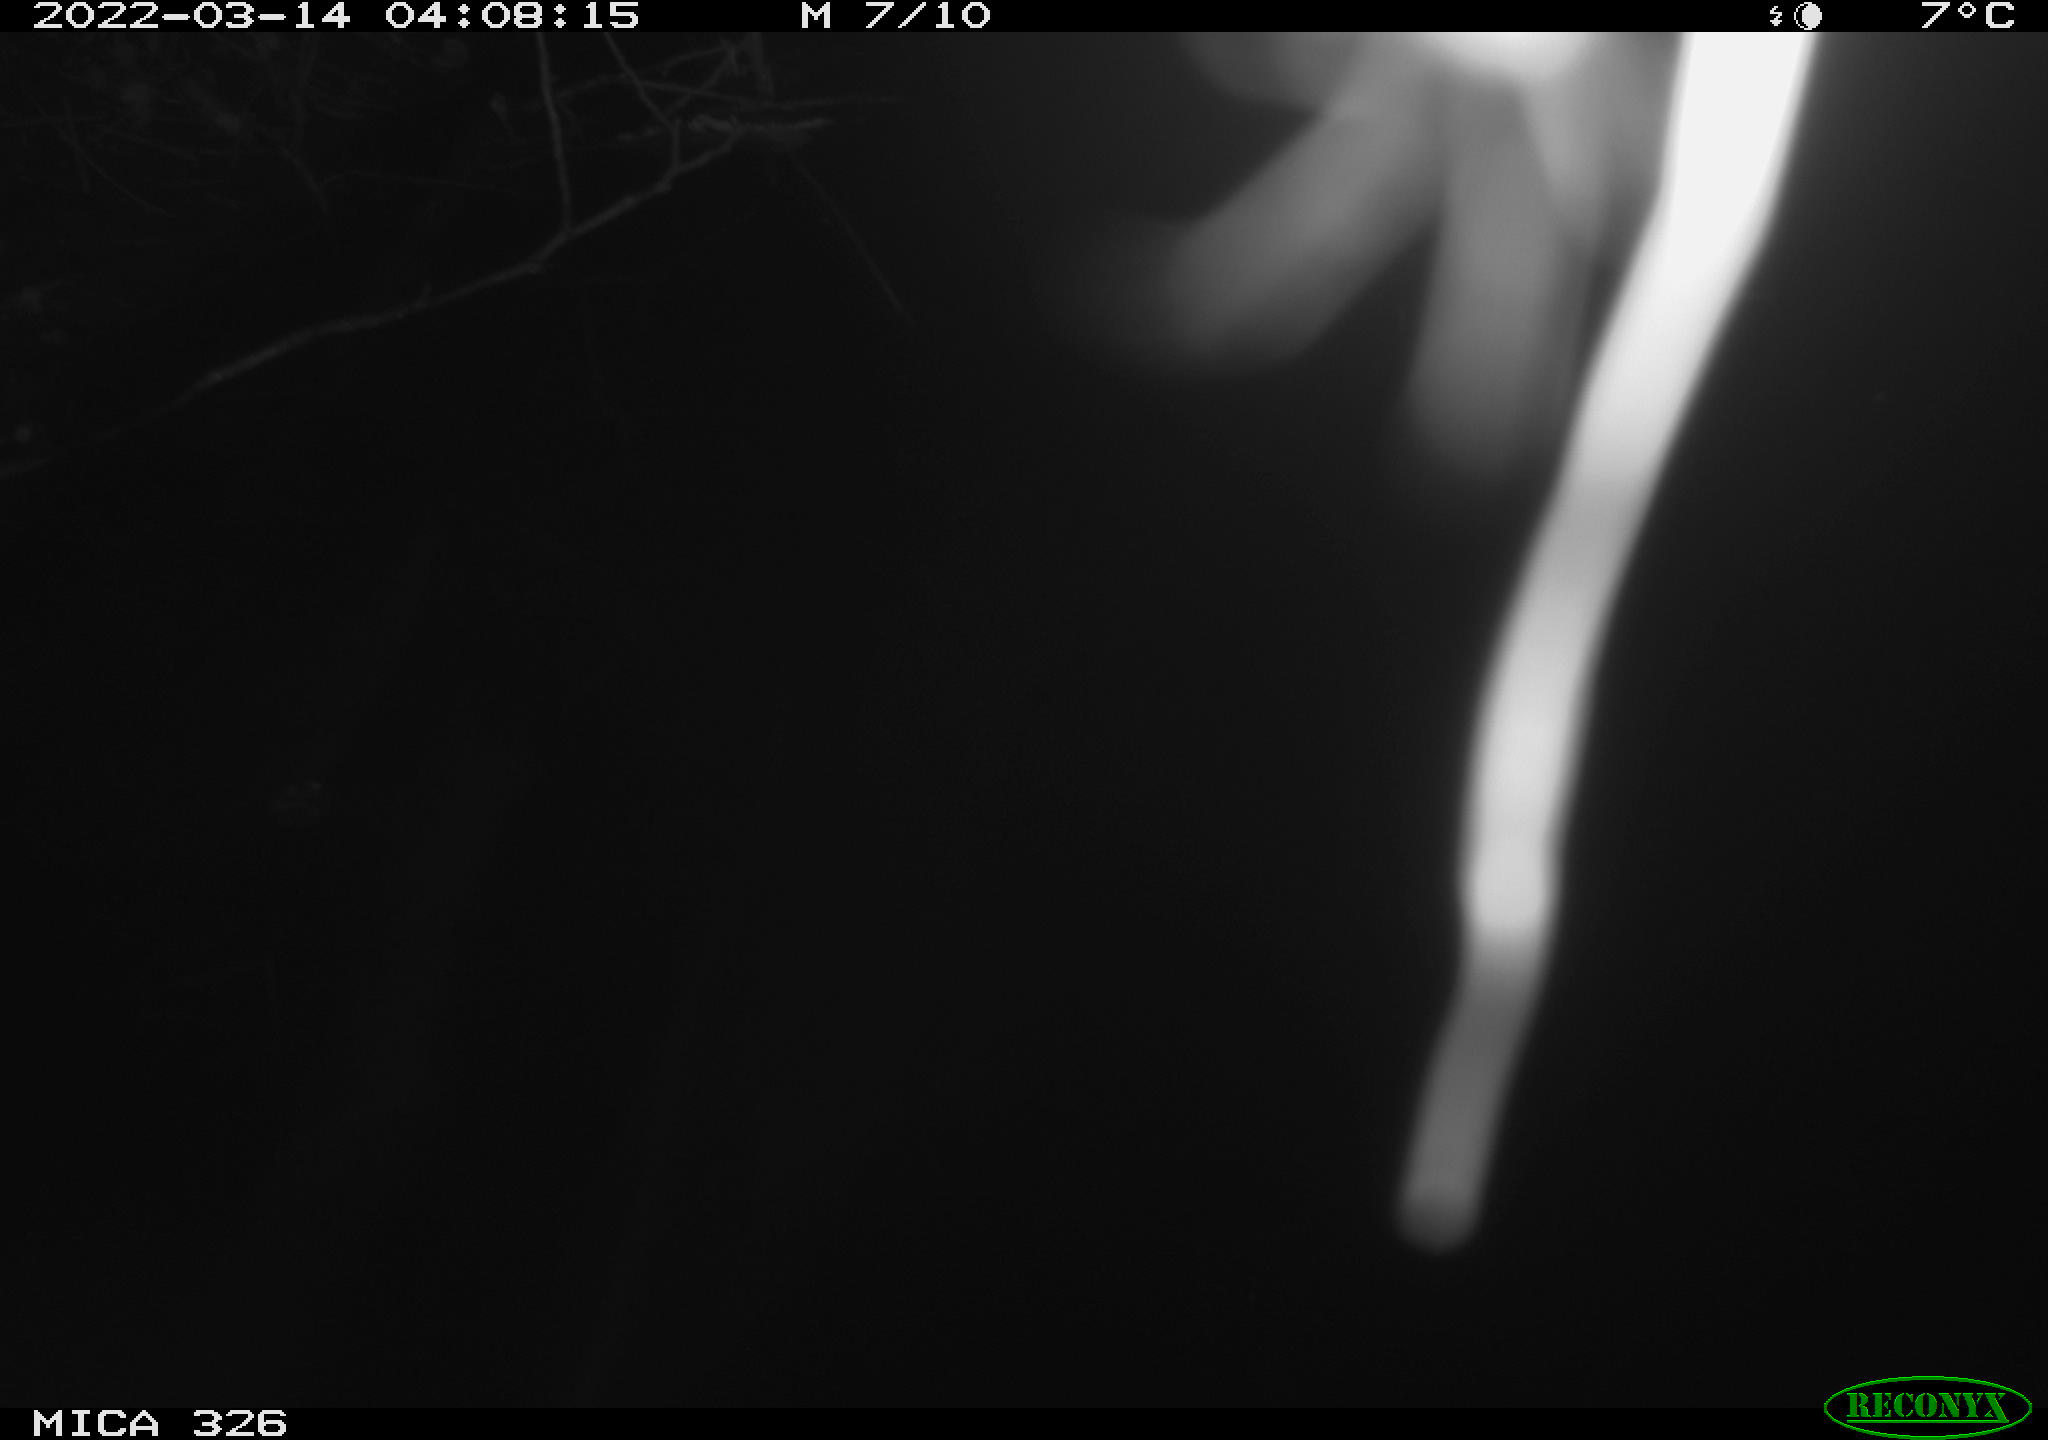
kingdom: Animalia
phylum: Chordata
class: Mammalia
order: Rodentia
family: Muridae
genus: Rattus
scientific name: Rattus norvegicus
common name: Brown rat
